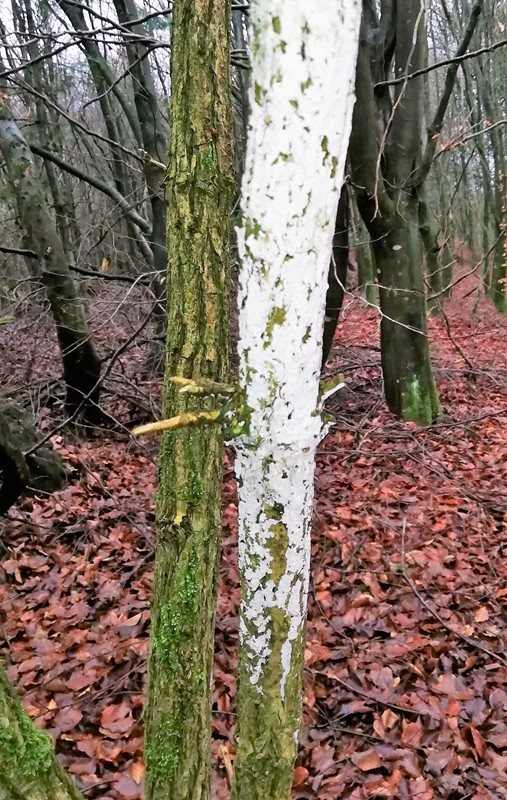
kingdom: Fungi
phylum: Basidiomycota
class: Agaricomycetes
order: Corticiales
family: Corticiaceae
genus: Lyomyces
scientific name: Lyomyces sambuci
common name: almindelig hyldehinde
